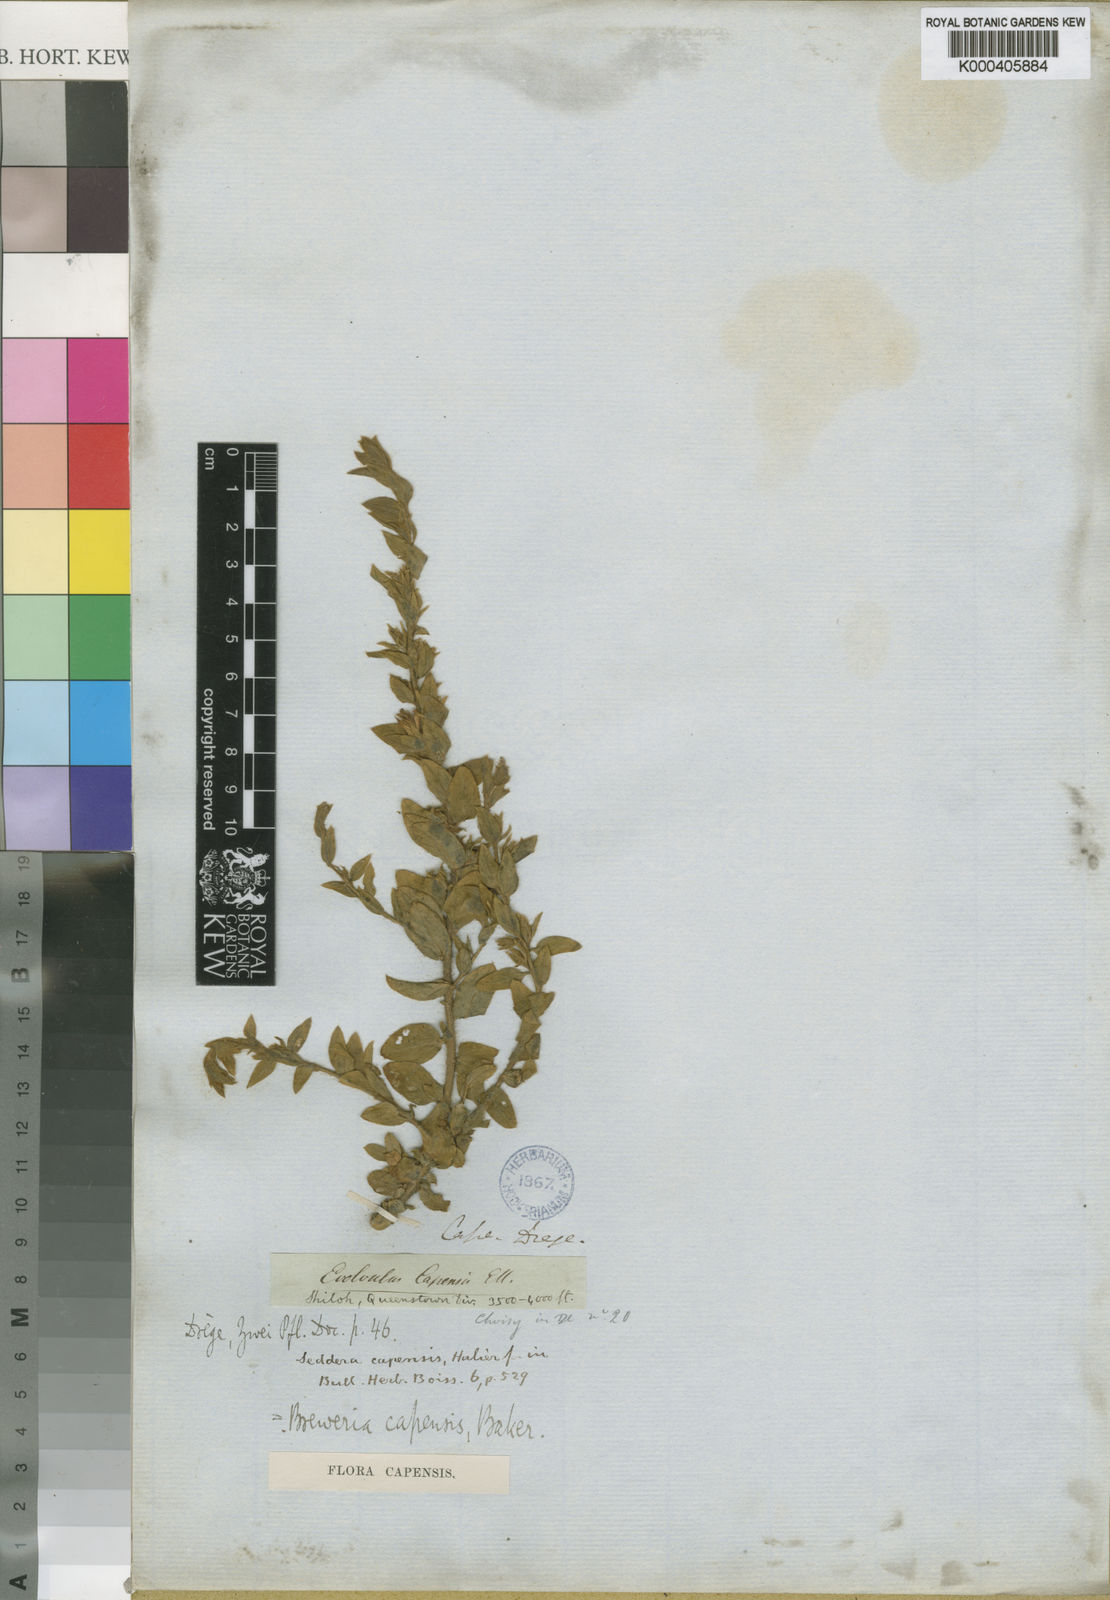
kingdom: Plantae
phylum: Tracheophyta
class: Magnoliopsida
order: Solanales
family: Convolvulaceae
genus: Seddera
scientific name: Seddera capensis
